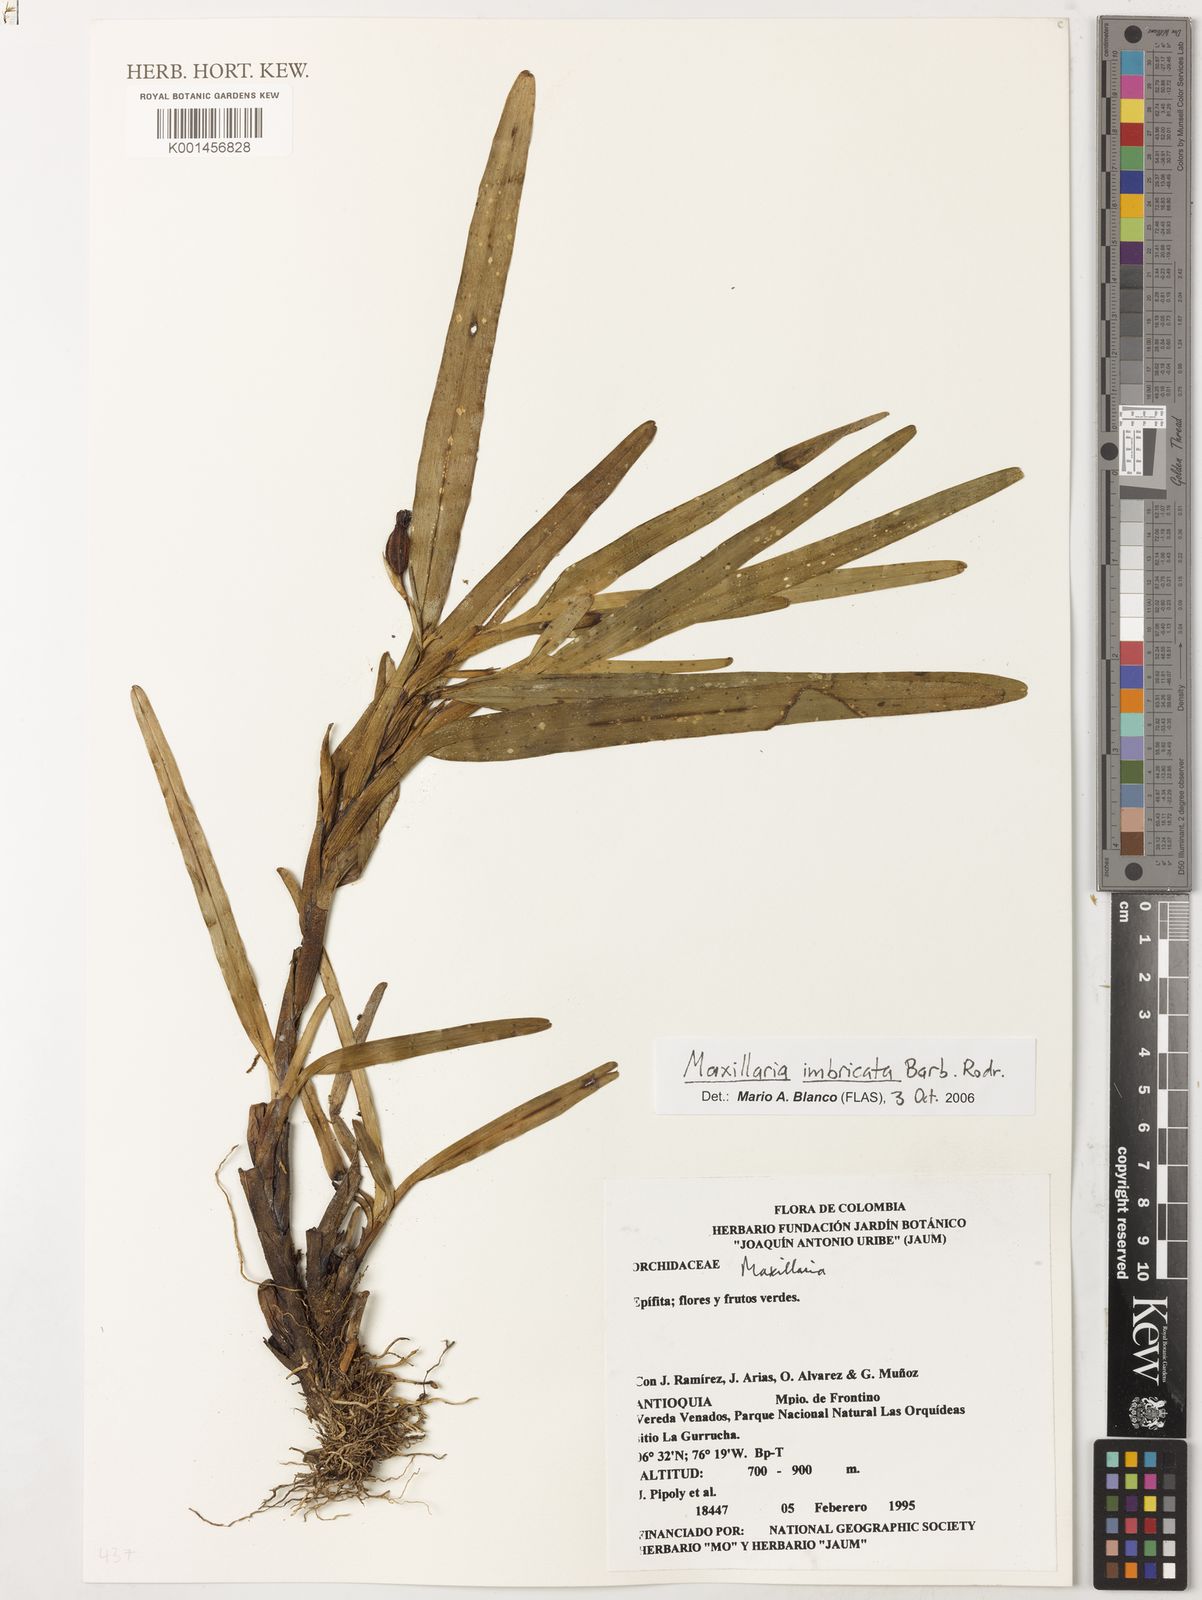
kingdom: Plantae
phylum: Tracheophyta
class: Liliopsida
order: Asparagales
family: Orchidaceae
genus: Maxillaria
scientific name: Maxillaria imbricata
